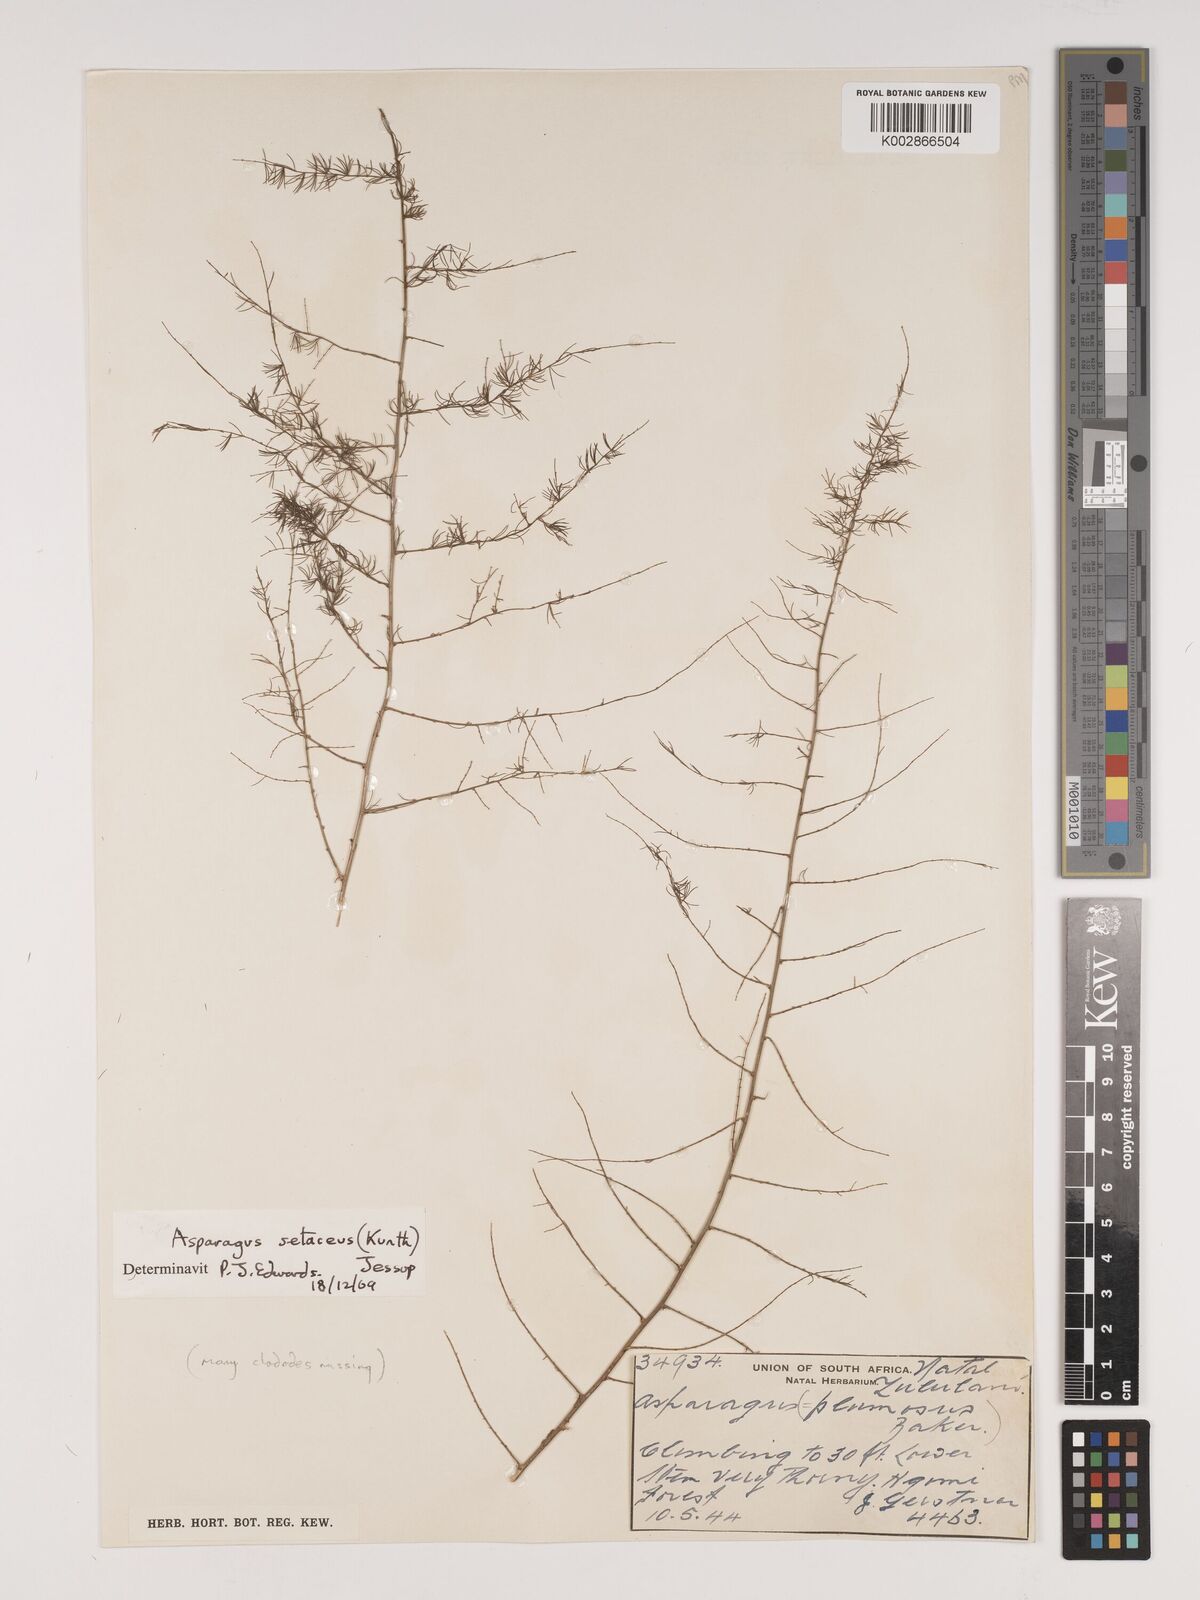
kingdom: Plantae
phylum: Tracheophyta
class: Liliopsida
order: Asparagales
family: Asparagaceae
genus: Asparagus
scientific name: Asparagus setaceus
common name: Common asparagus fern
